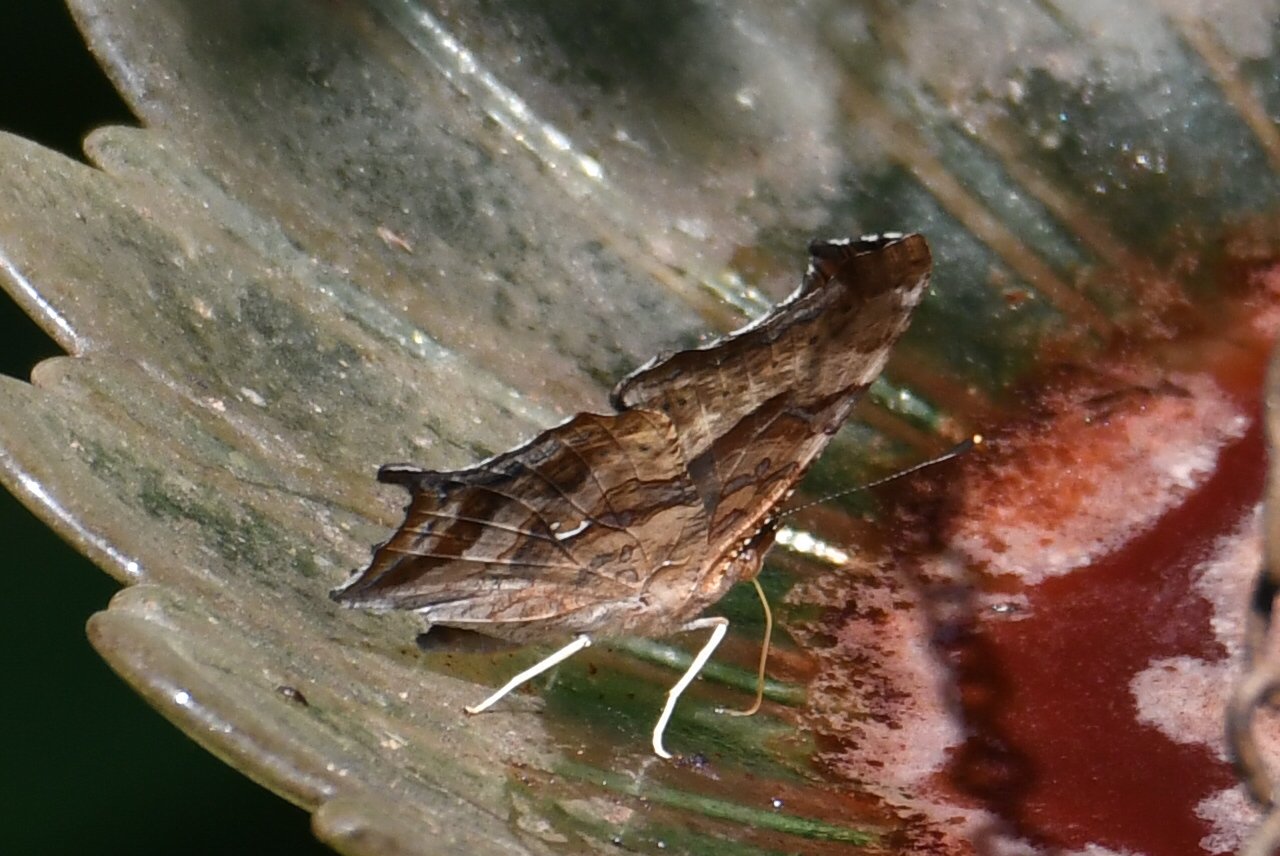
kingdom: Animalia
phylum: Arthropoda
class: Insecta
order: Lepidoptera
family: Nymphalidae
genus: Polygonia
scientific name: Polygonia interrogationis
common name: Question Mark
